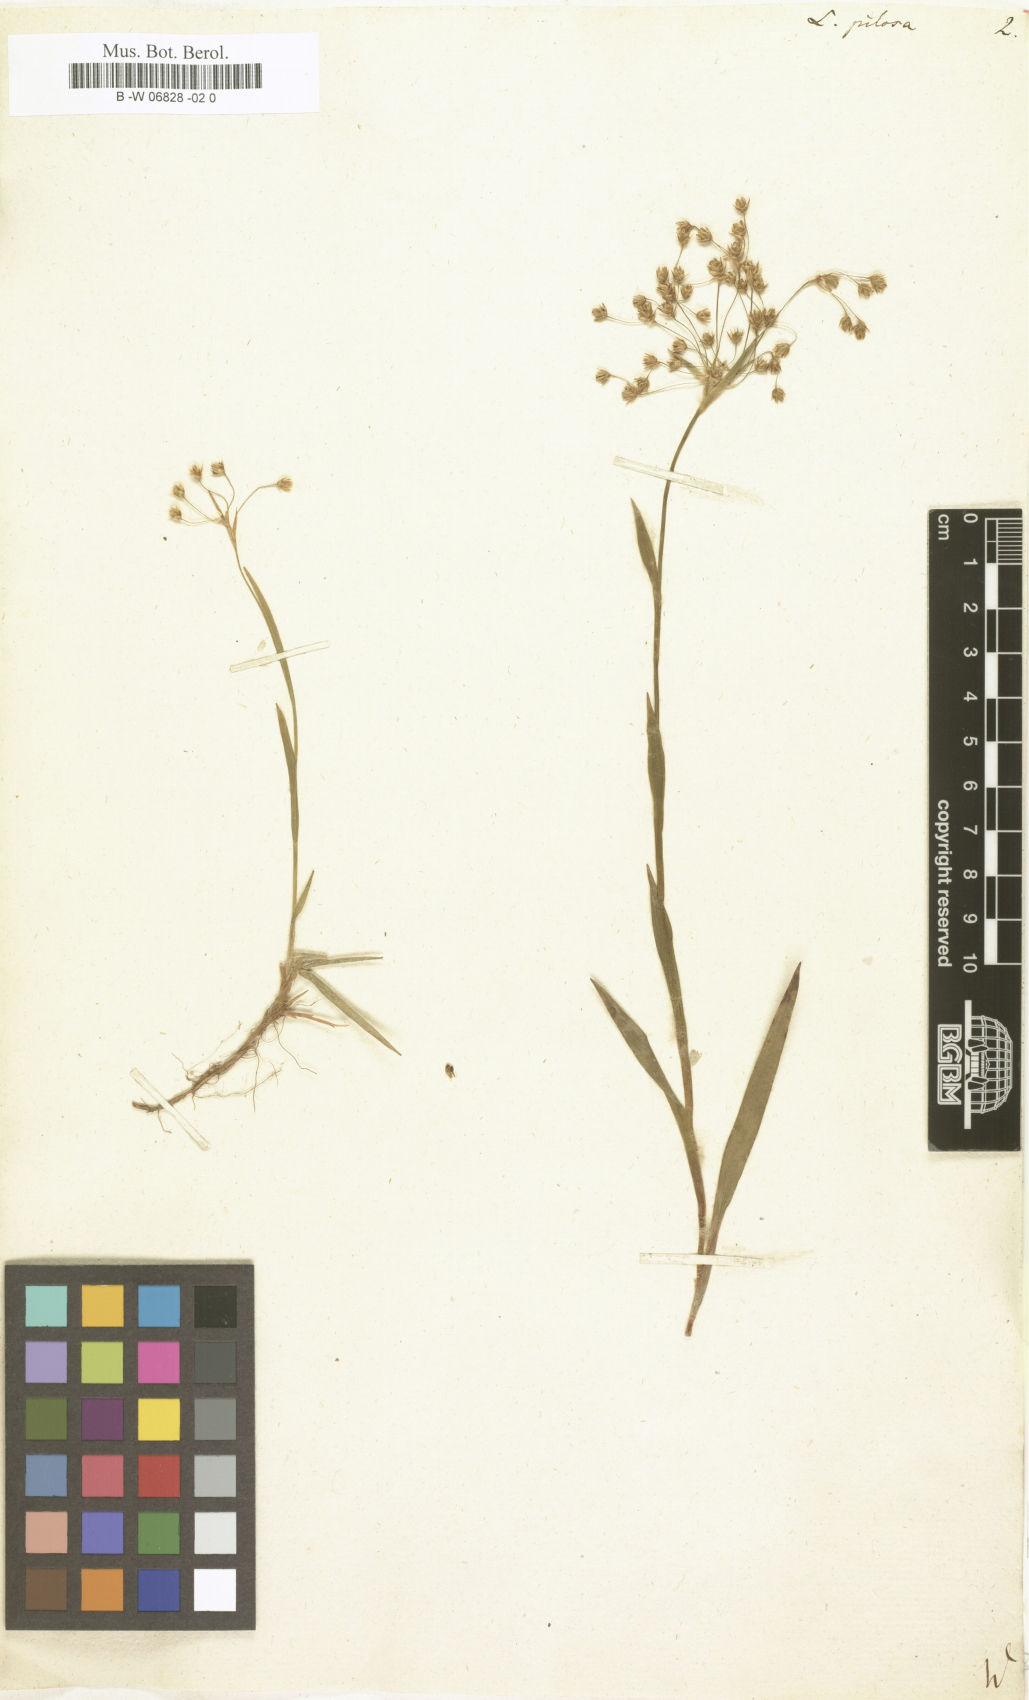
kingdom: Plantae
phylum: Tracheophyta
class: Liliopsida
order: Poales
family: Juncaceae
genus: Luzula
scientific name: Luzula pilosa
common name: Hairy wood-rush
